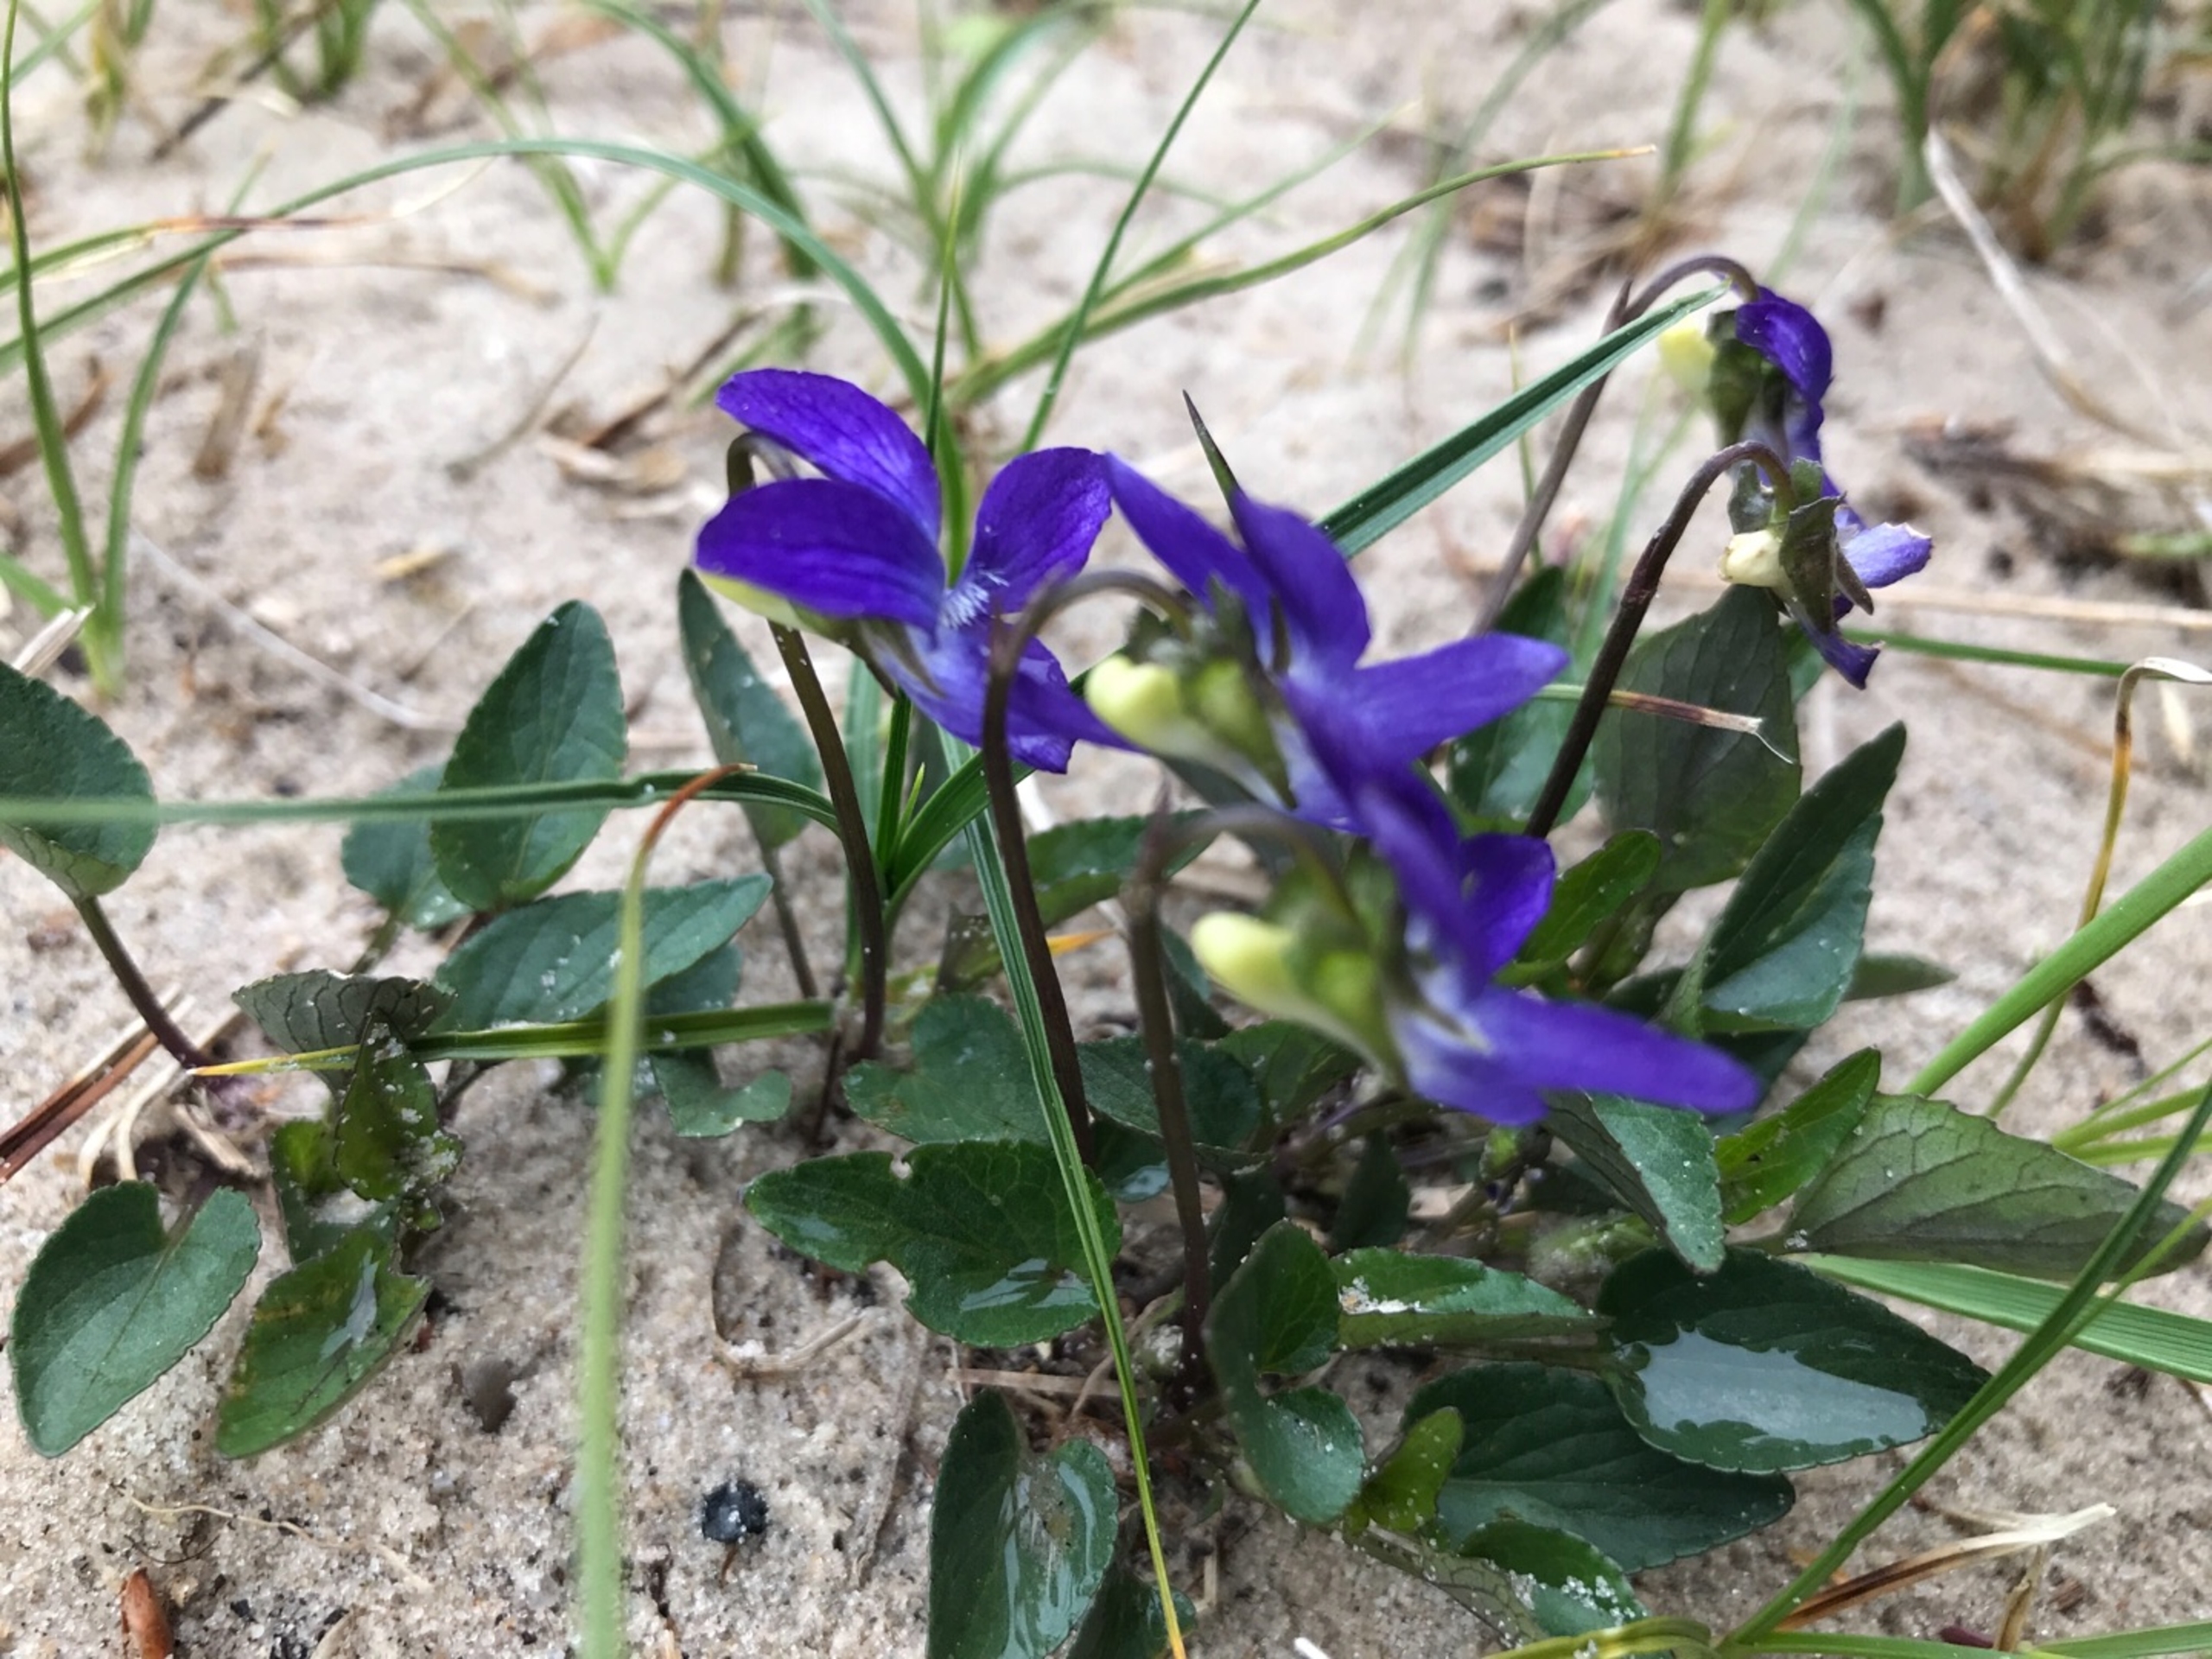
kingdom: Plantae
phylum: Tracheophyta
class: Magnoliopsida
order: Malpighiales
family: Violaceae
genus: Viola
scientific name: Viola canina
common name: Hunde-viol
